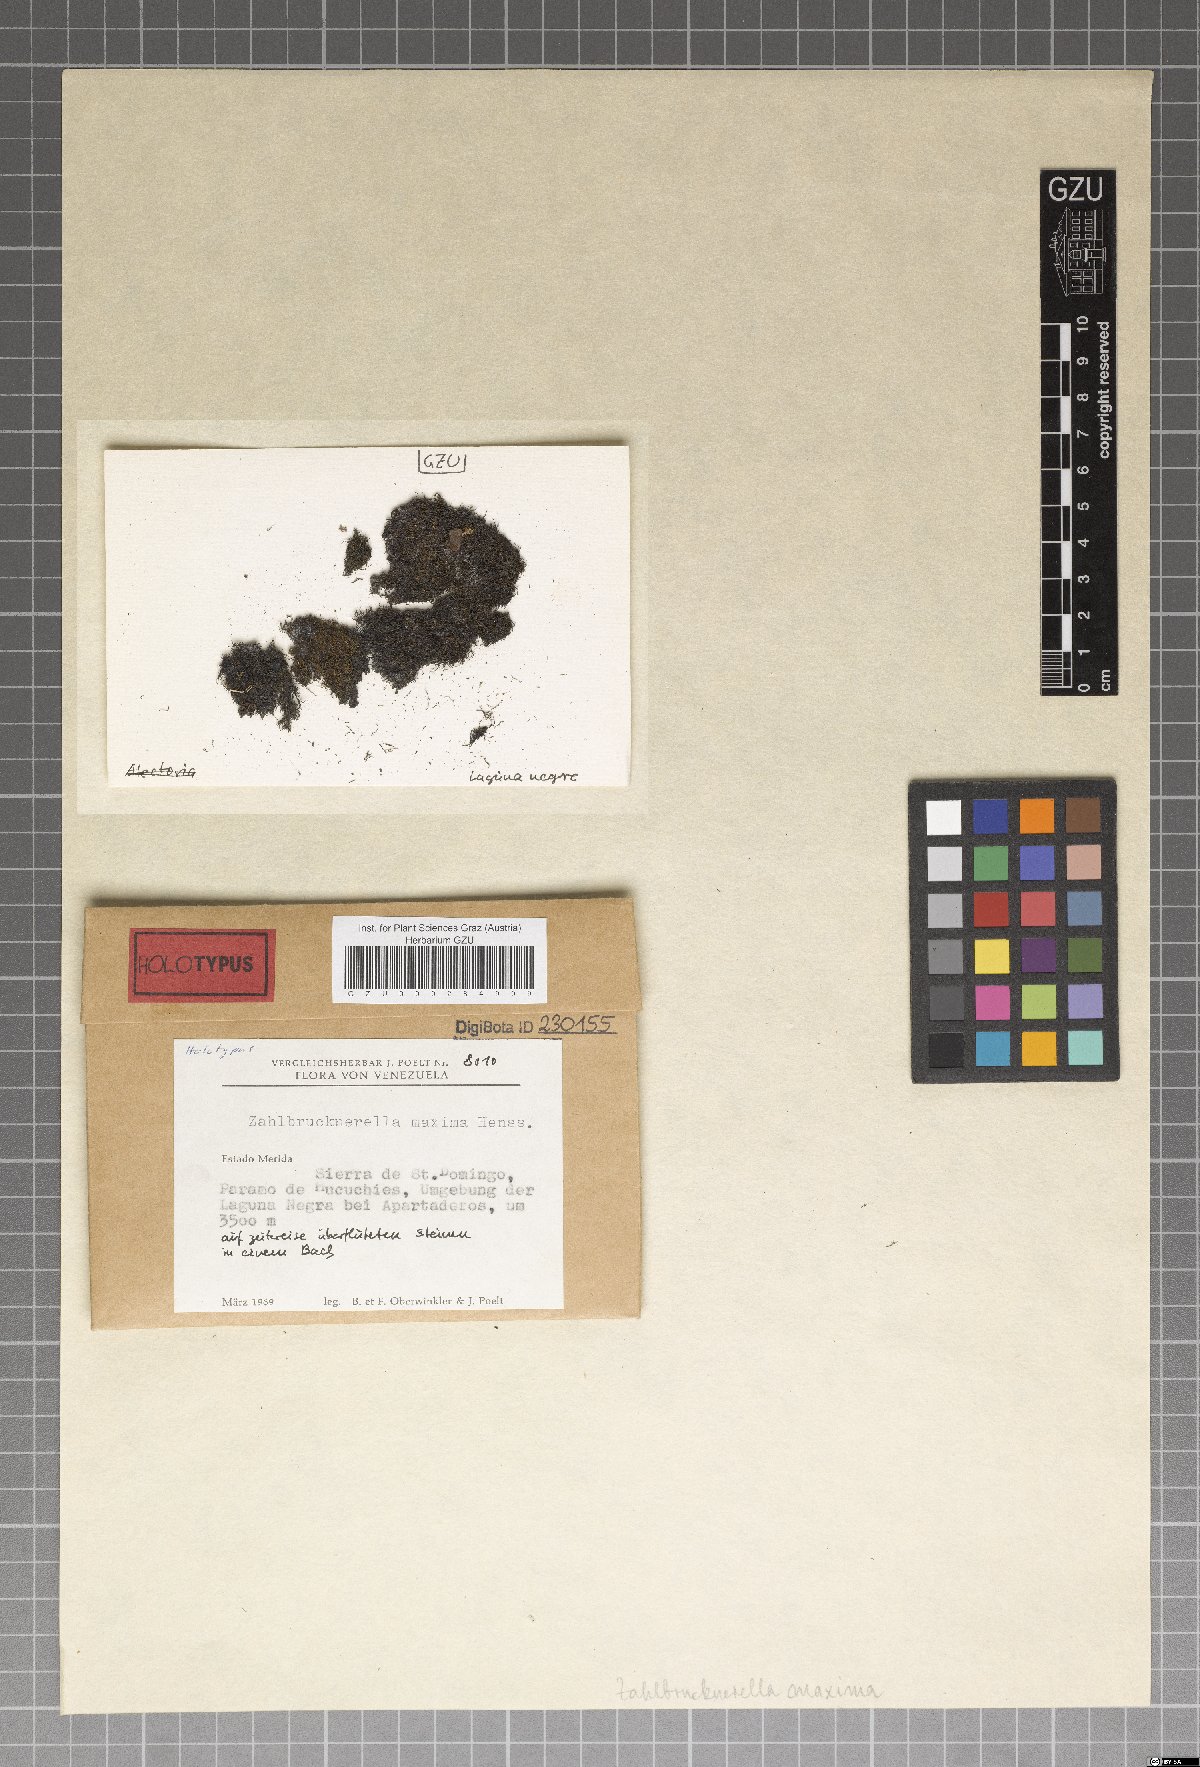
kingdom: Fungi
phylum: Ascomycota
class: Lichinomycetes
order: Lichinales
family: Lichinaceae
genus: Zahlbrucknerella
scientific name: Zahlbrucknerella
